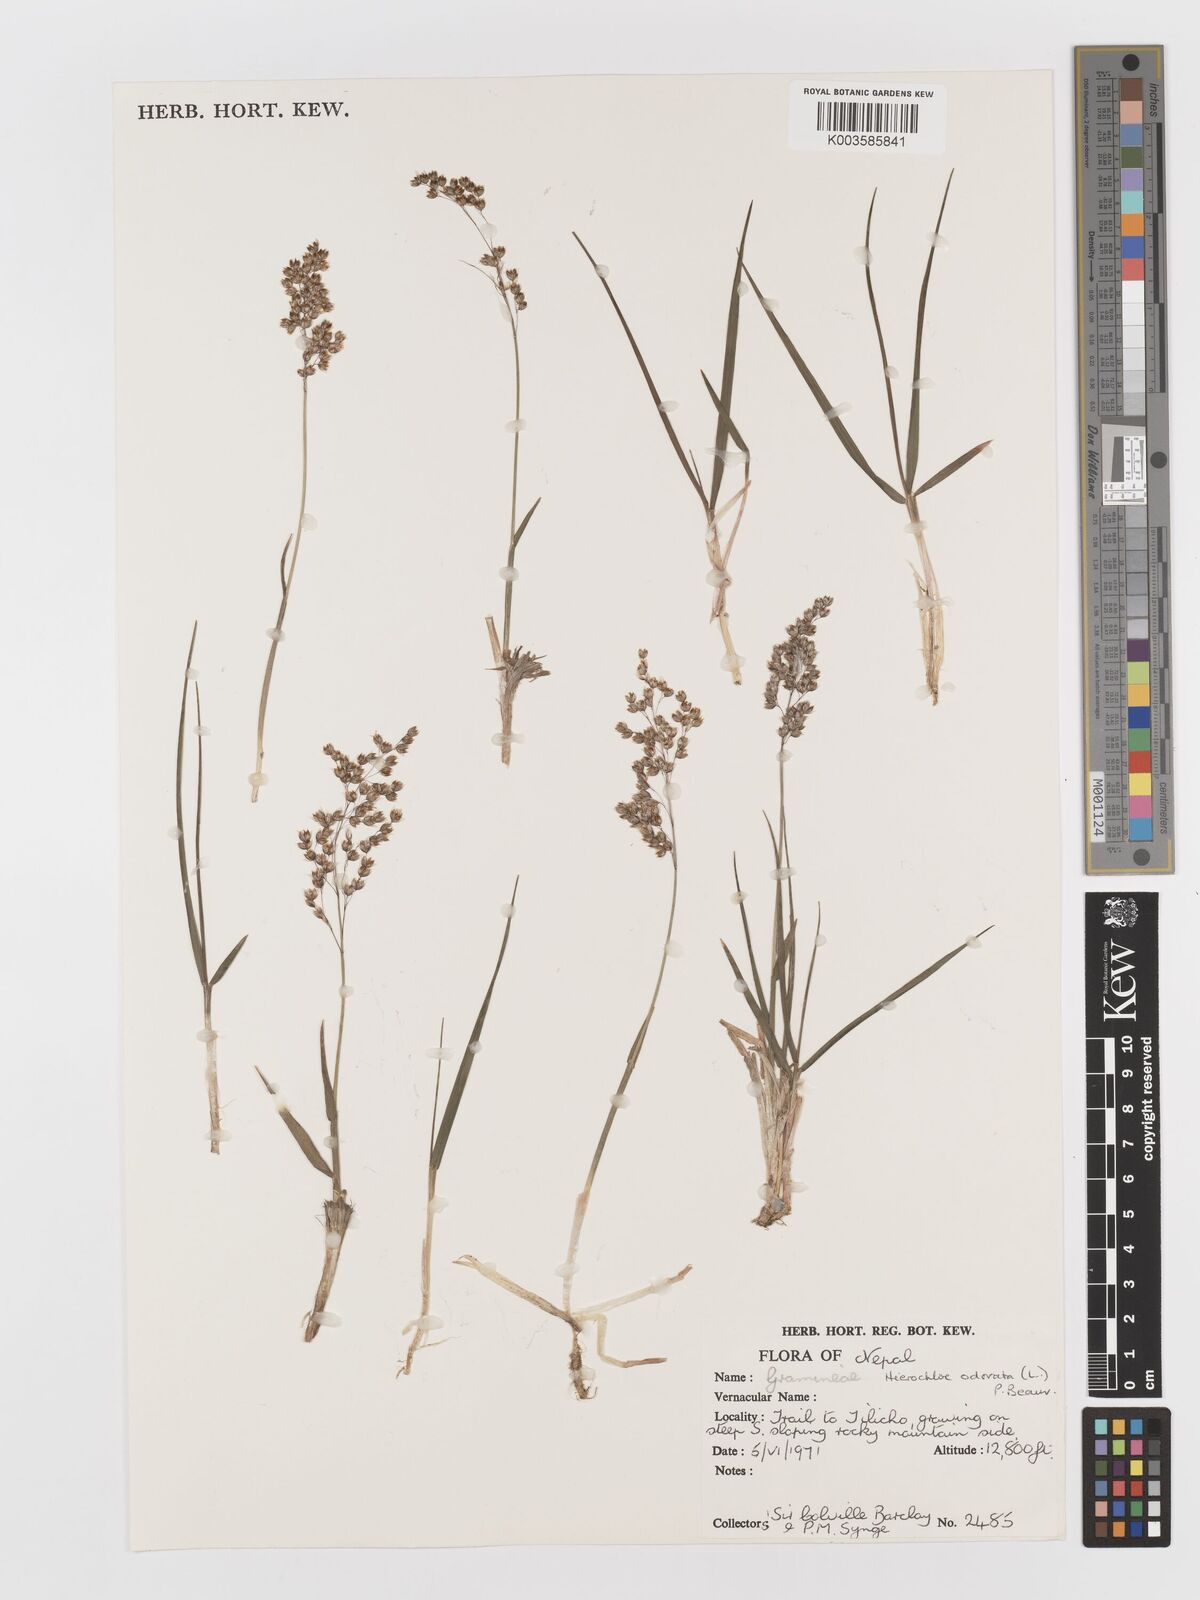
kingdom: Plantae
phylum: Tracheophyta
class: Liliopsida
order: Poales
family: Poaceae
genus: Anthoxanthum
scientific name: Anthoxanthum nitens
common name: Holy grass
